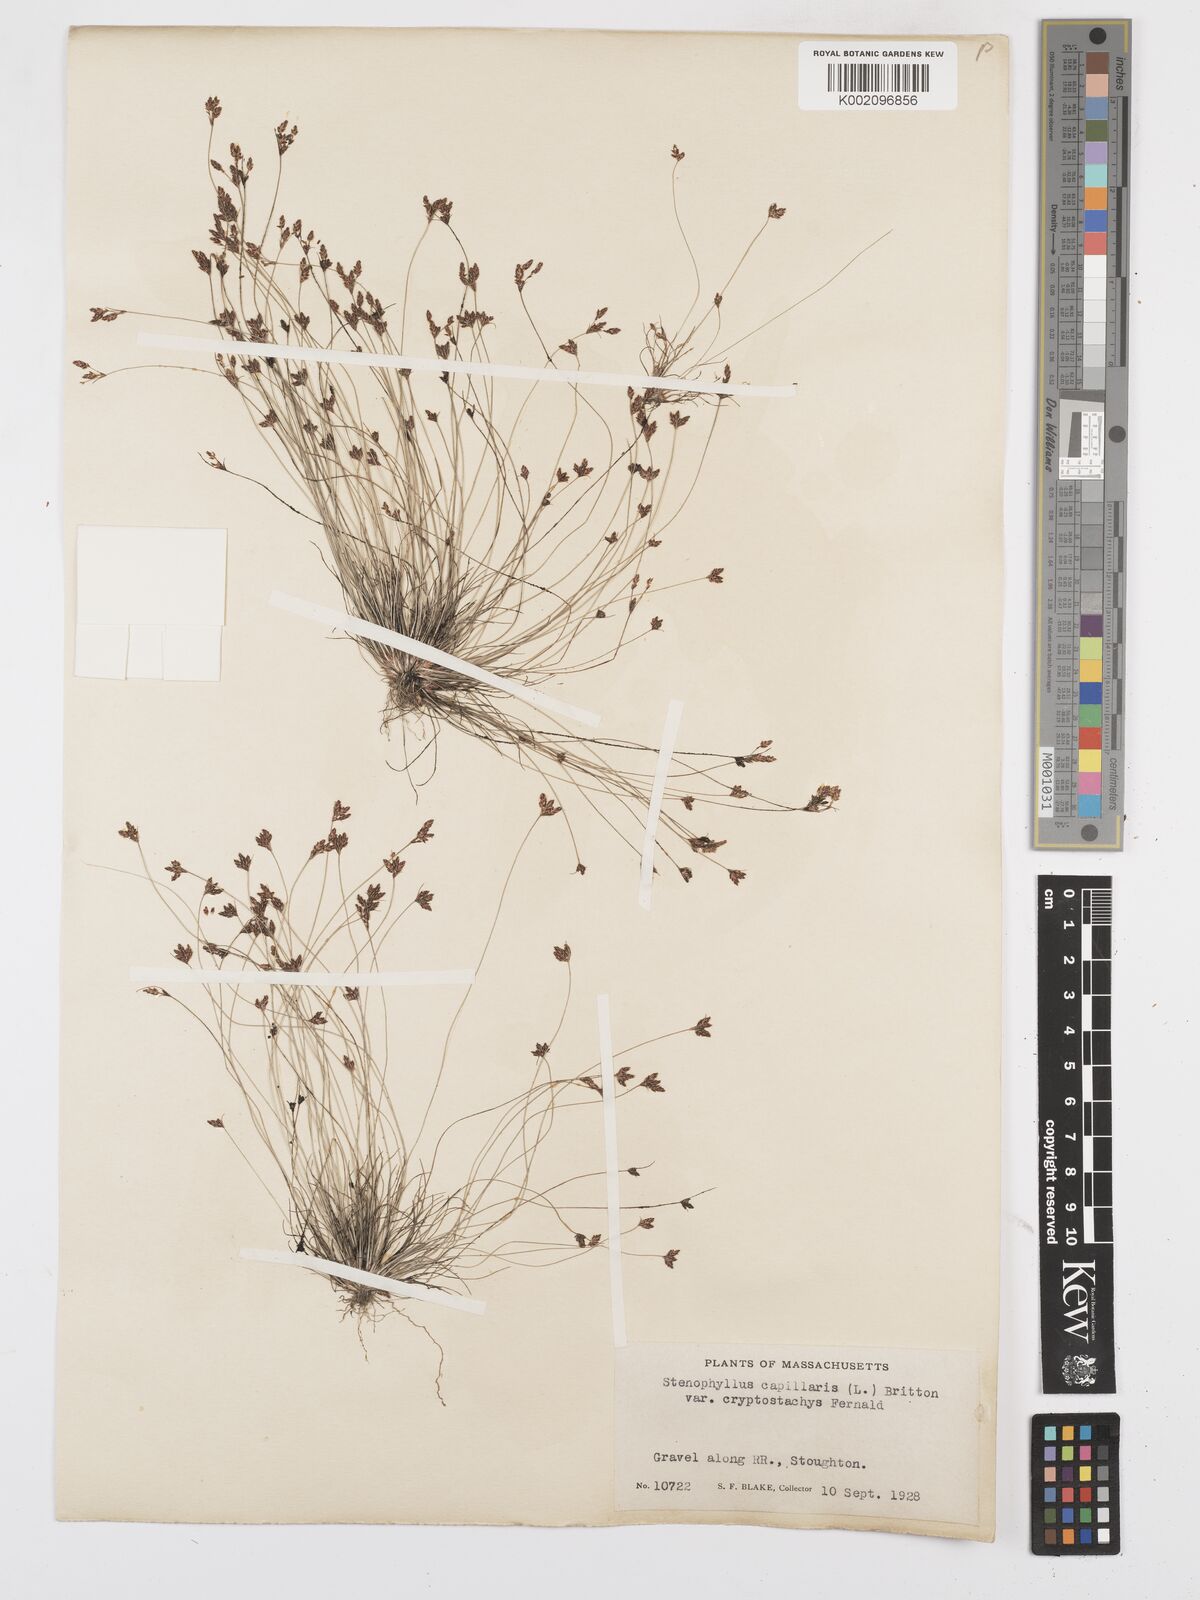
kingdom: Plantae
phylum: Tracheophyta
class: Liliopsida
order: Poales
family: Cyperaceae
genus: Bulbostylis
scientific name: Bulbostylis capillaris
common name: Densetuft hairsedge
